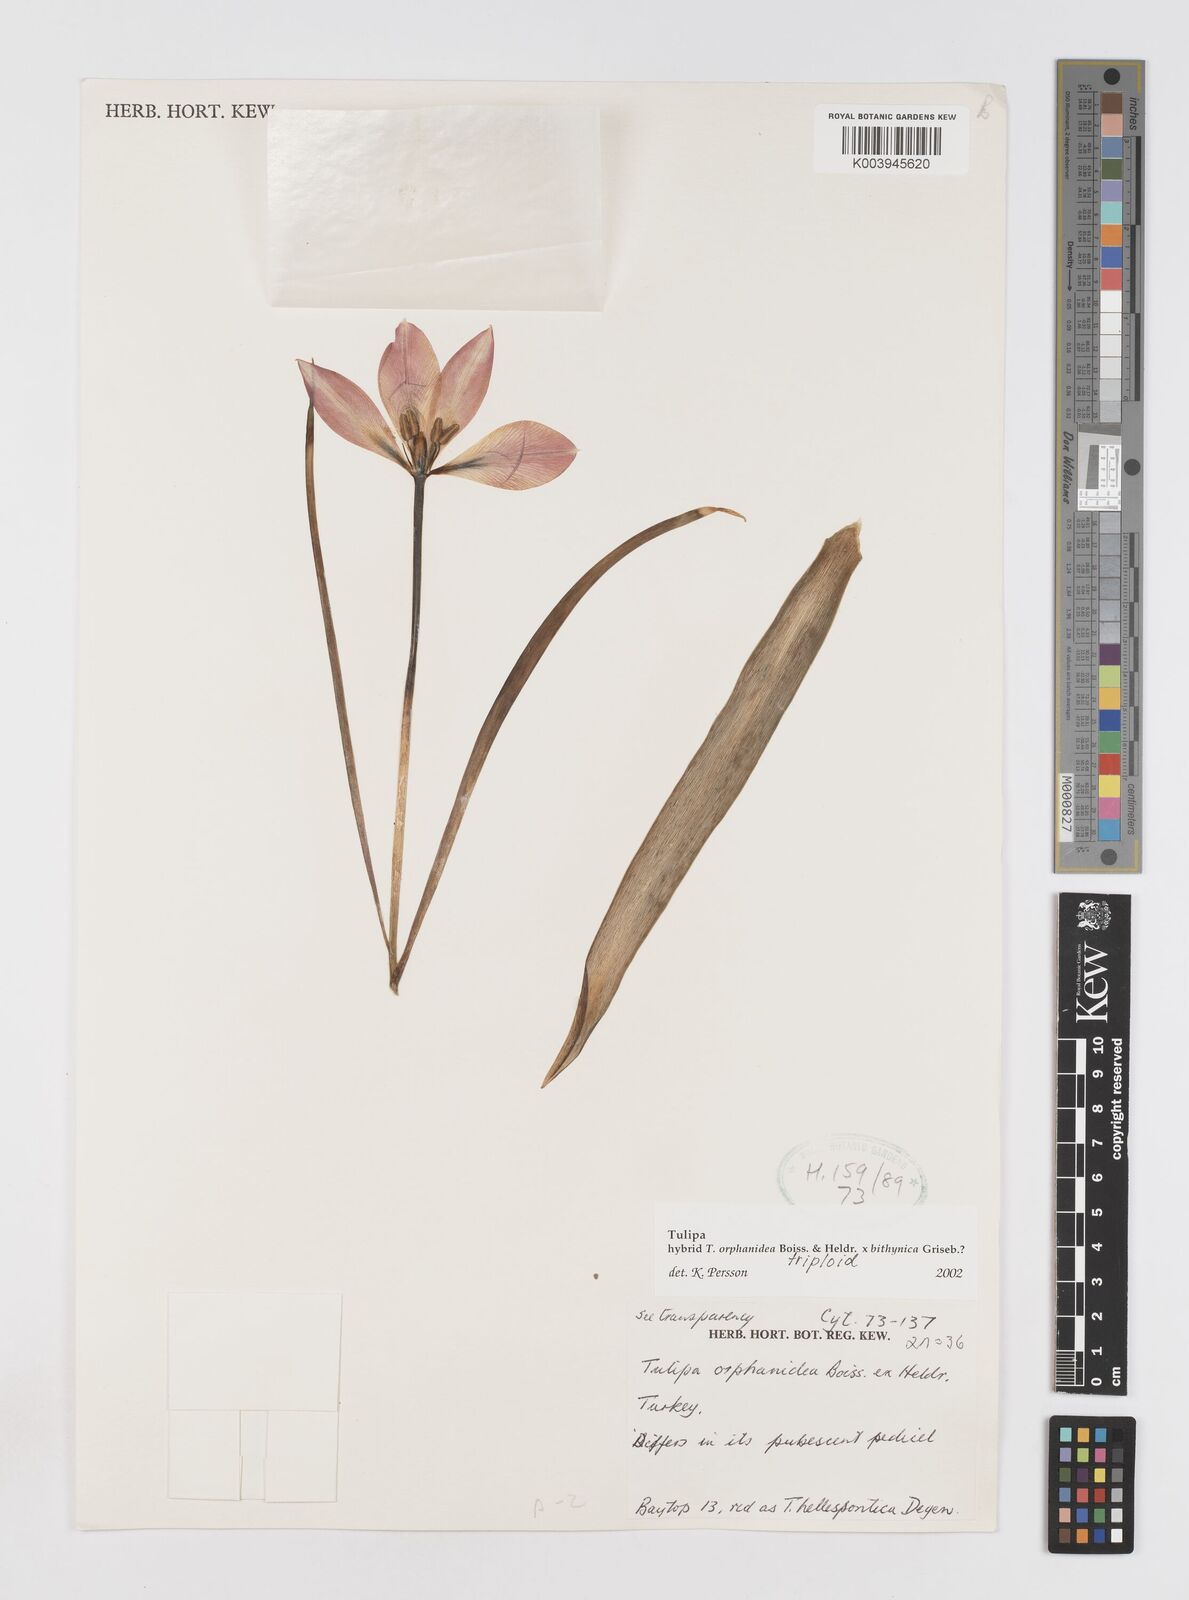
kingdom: Plantae
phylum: Tracheophyta
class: Liliopsida
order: Liliales
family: Liliaceae
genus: Tulipa
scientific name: Tulipa orphanidea
